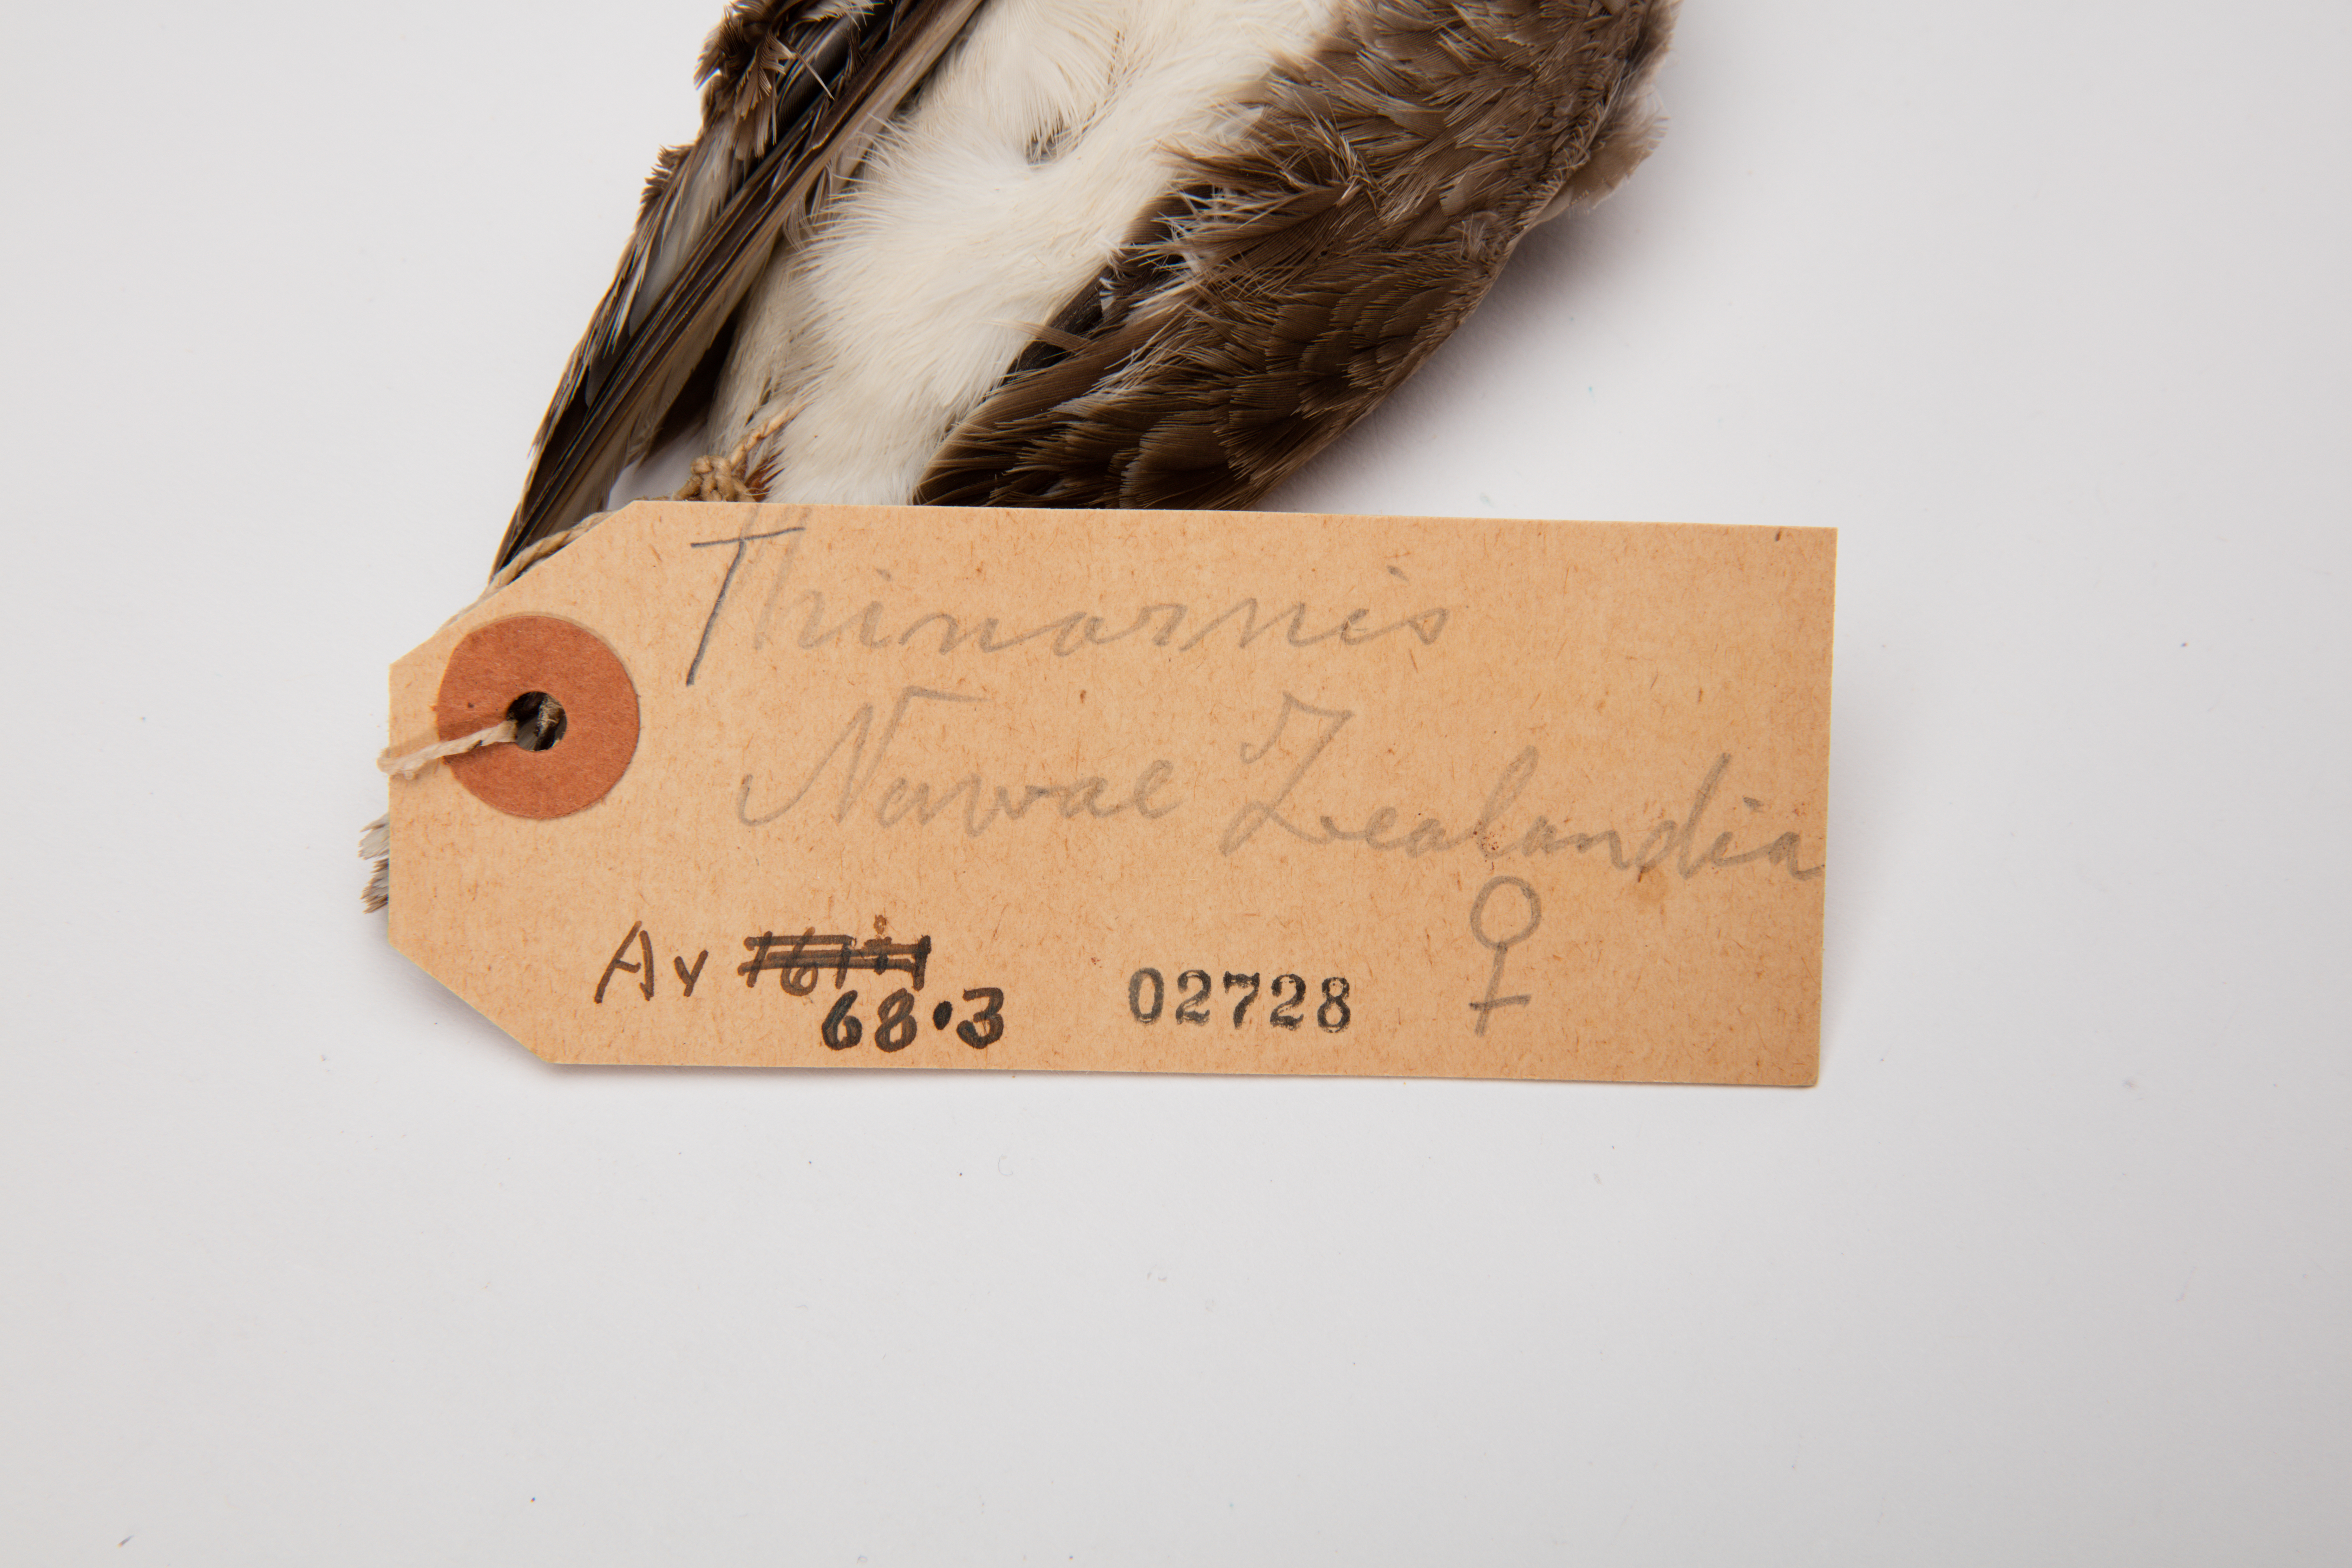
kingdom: Animalia
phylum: Chordata
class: Aves
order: Charadriiformes
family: Charadriidae
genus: Thinornis
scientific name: Thinornis novaeseelandiae
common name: Shore dotterel
